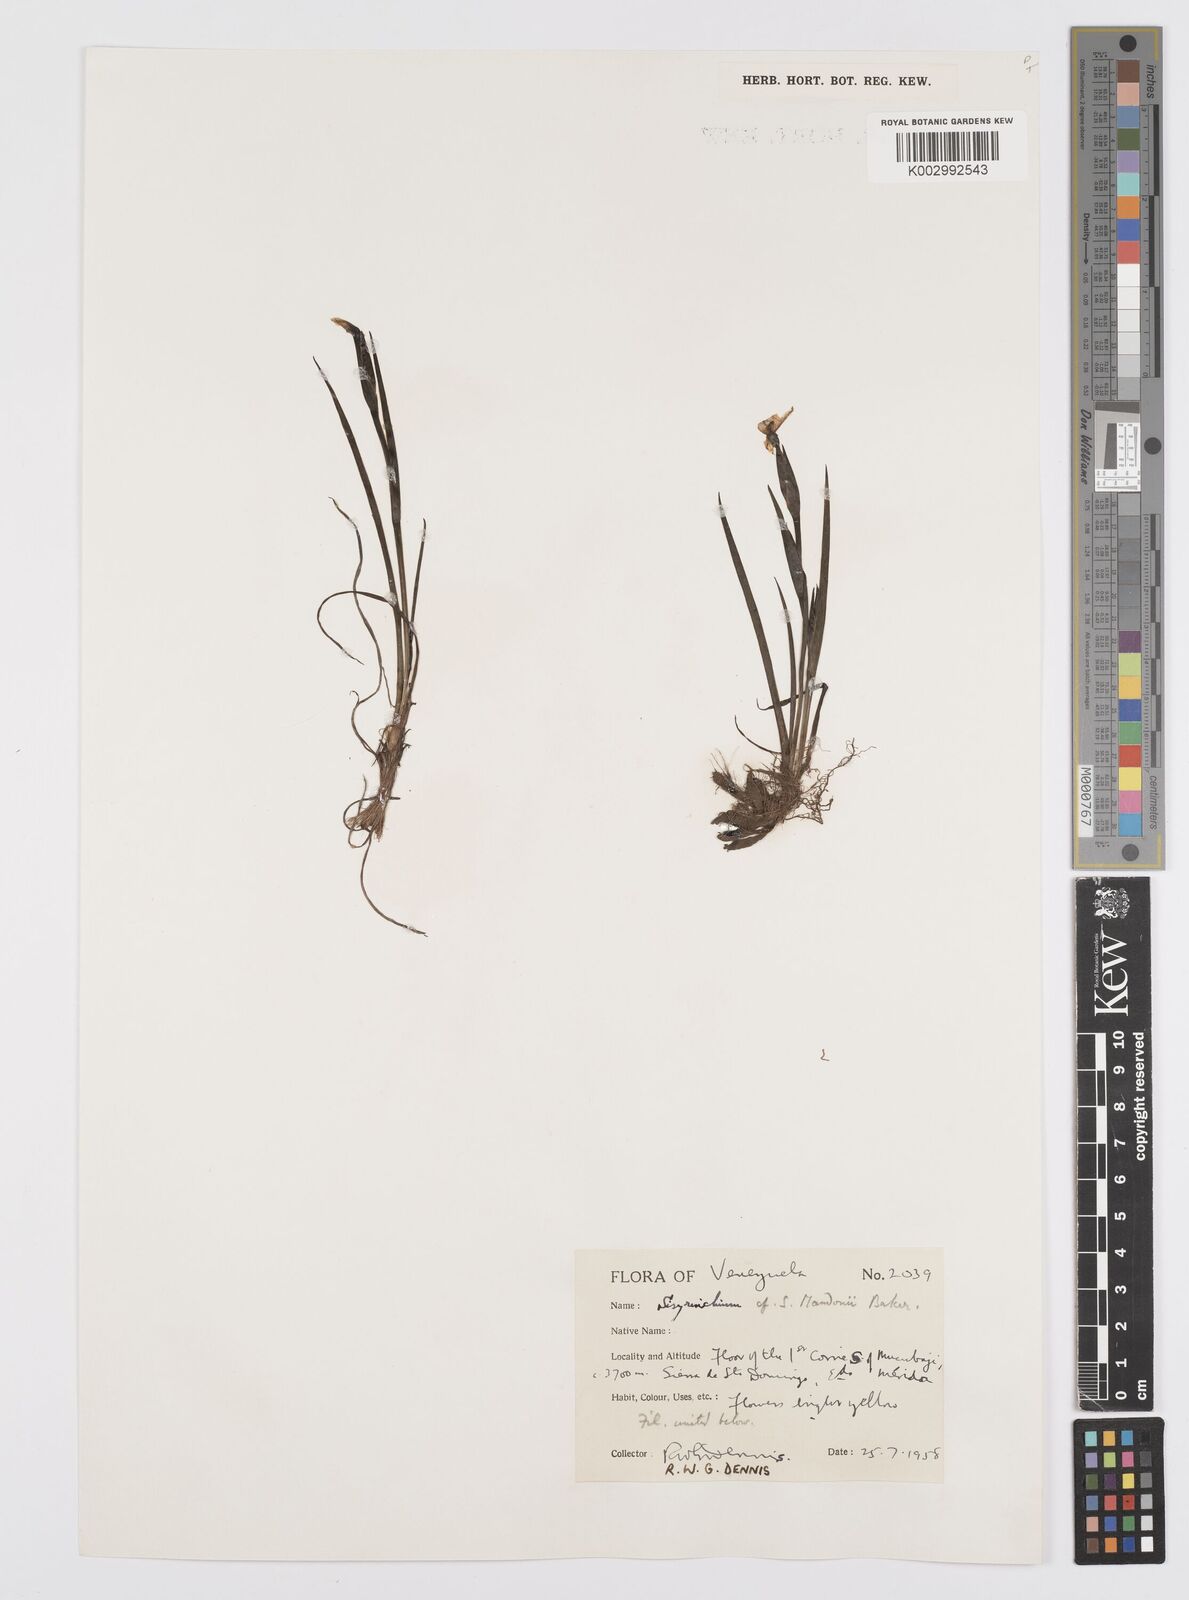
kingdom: Plantae
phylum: Tracheophyta
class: Liliopsida
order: Asparagales
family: Iridaceae
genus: Sisyrinchium
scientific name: Sisyrinchium mandonii
